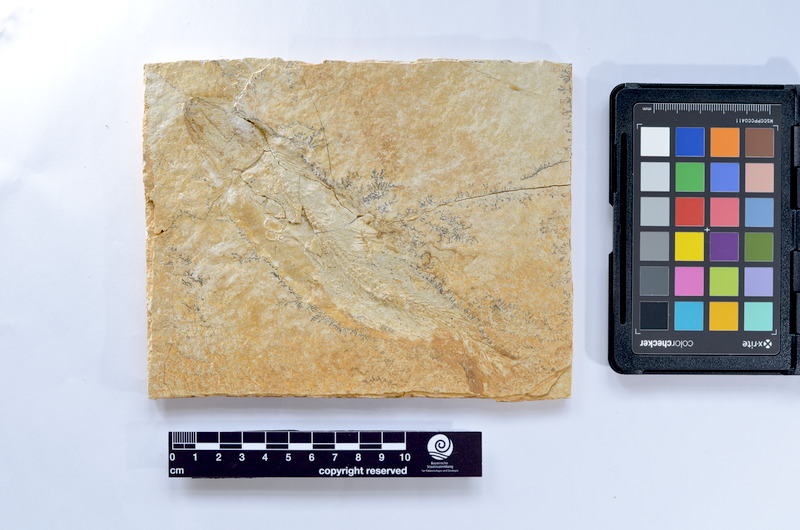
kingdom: Animalia
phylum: Chordata
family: Ascalaboidae
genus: Tharsis
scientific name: Tharsis dubius
